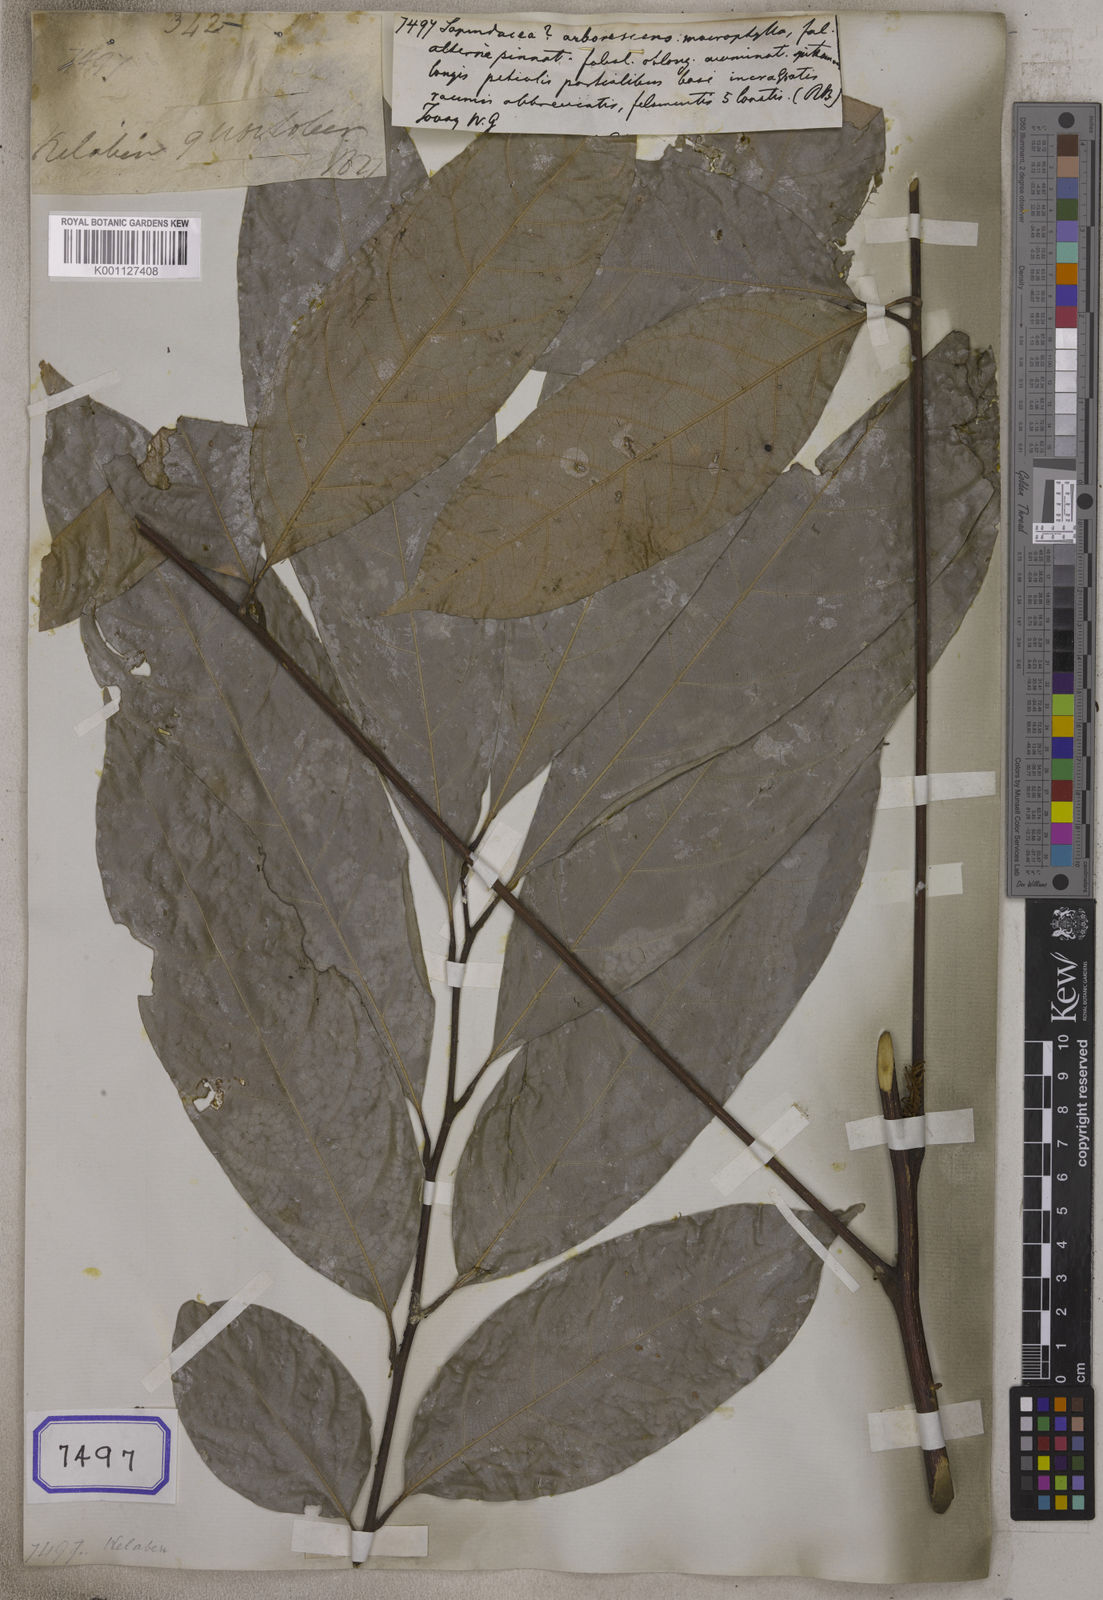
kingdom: Plantae
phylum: Tracheophyta
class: Magnoliopsida
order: Sapindales
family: Sapindaceae
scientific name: Sapindaceae
